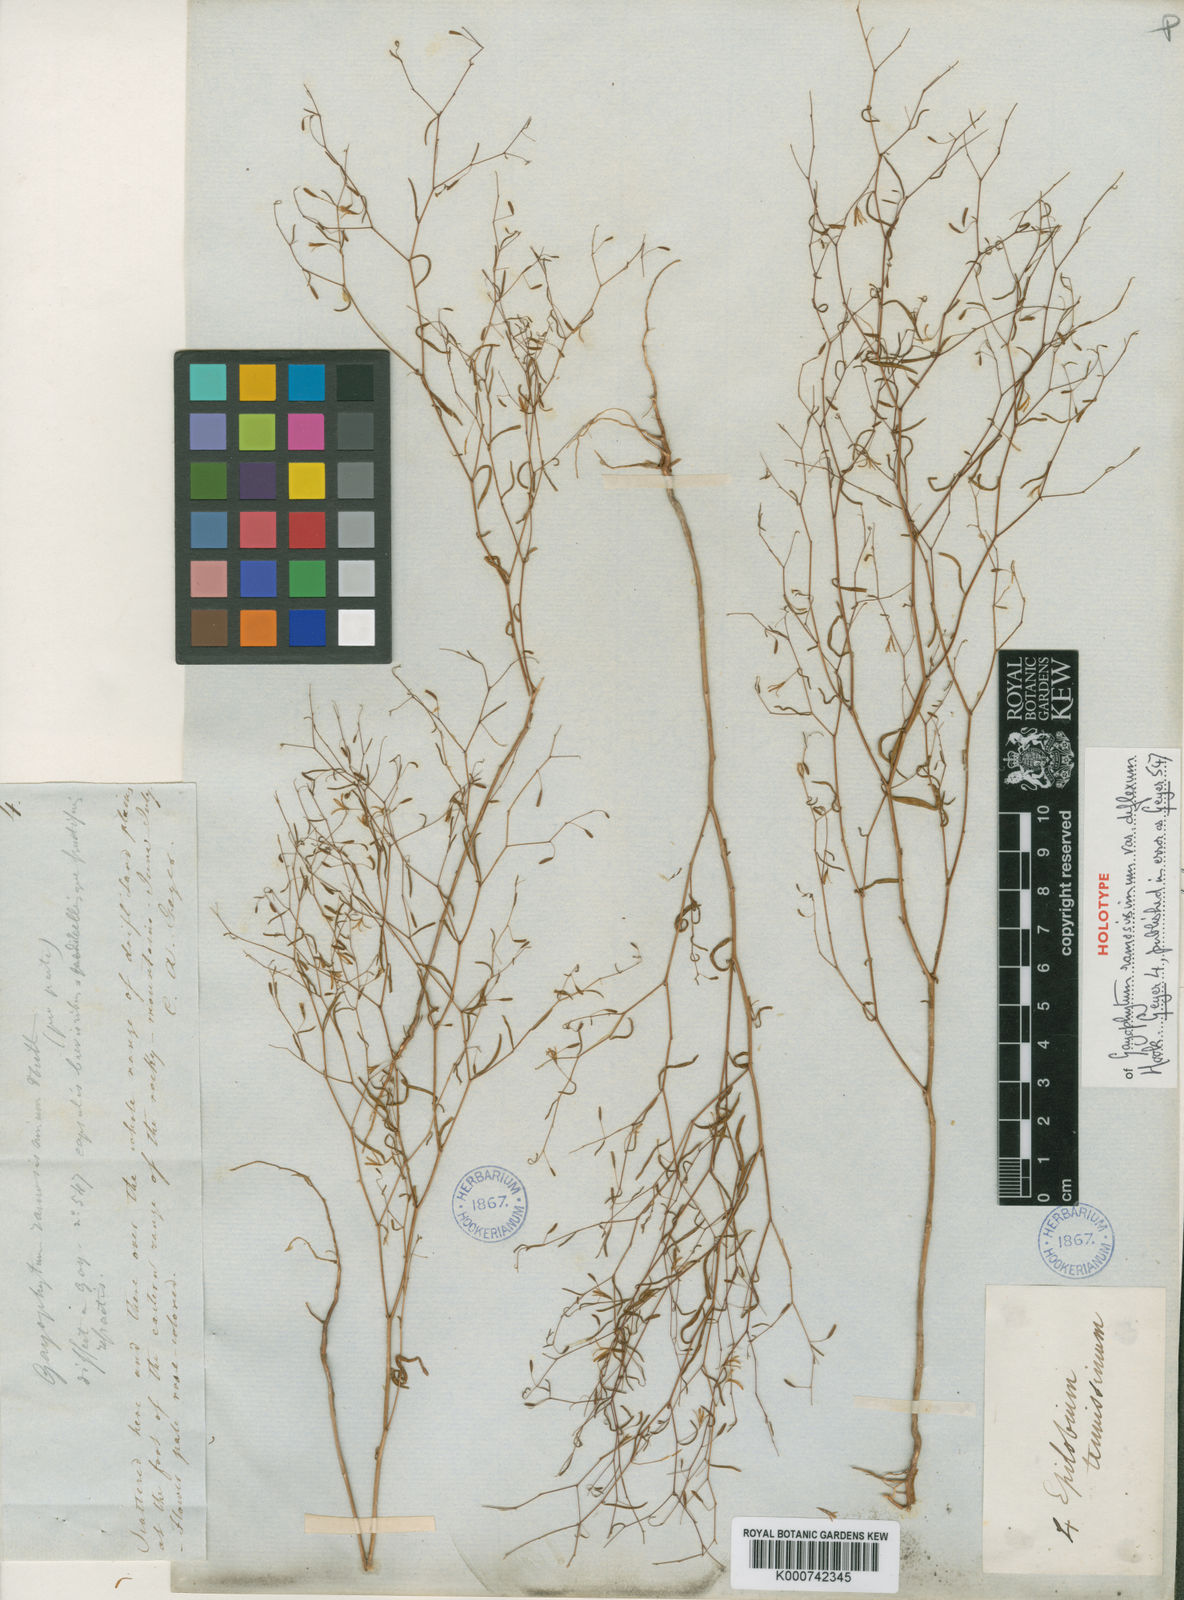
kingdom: Plantae
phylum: Tracheophyta
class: Magnoliopsida
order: Myrtales
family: Onagraceae
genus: Gayophytum
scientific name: Gayophytum ramosissimum
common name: Hairstem groundsmoke
